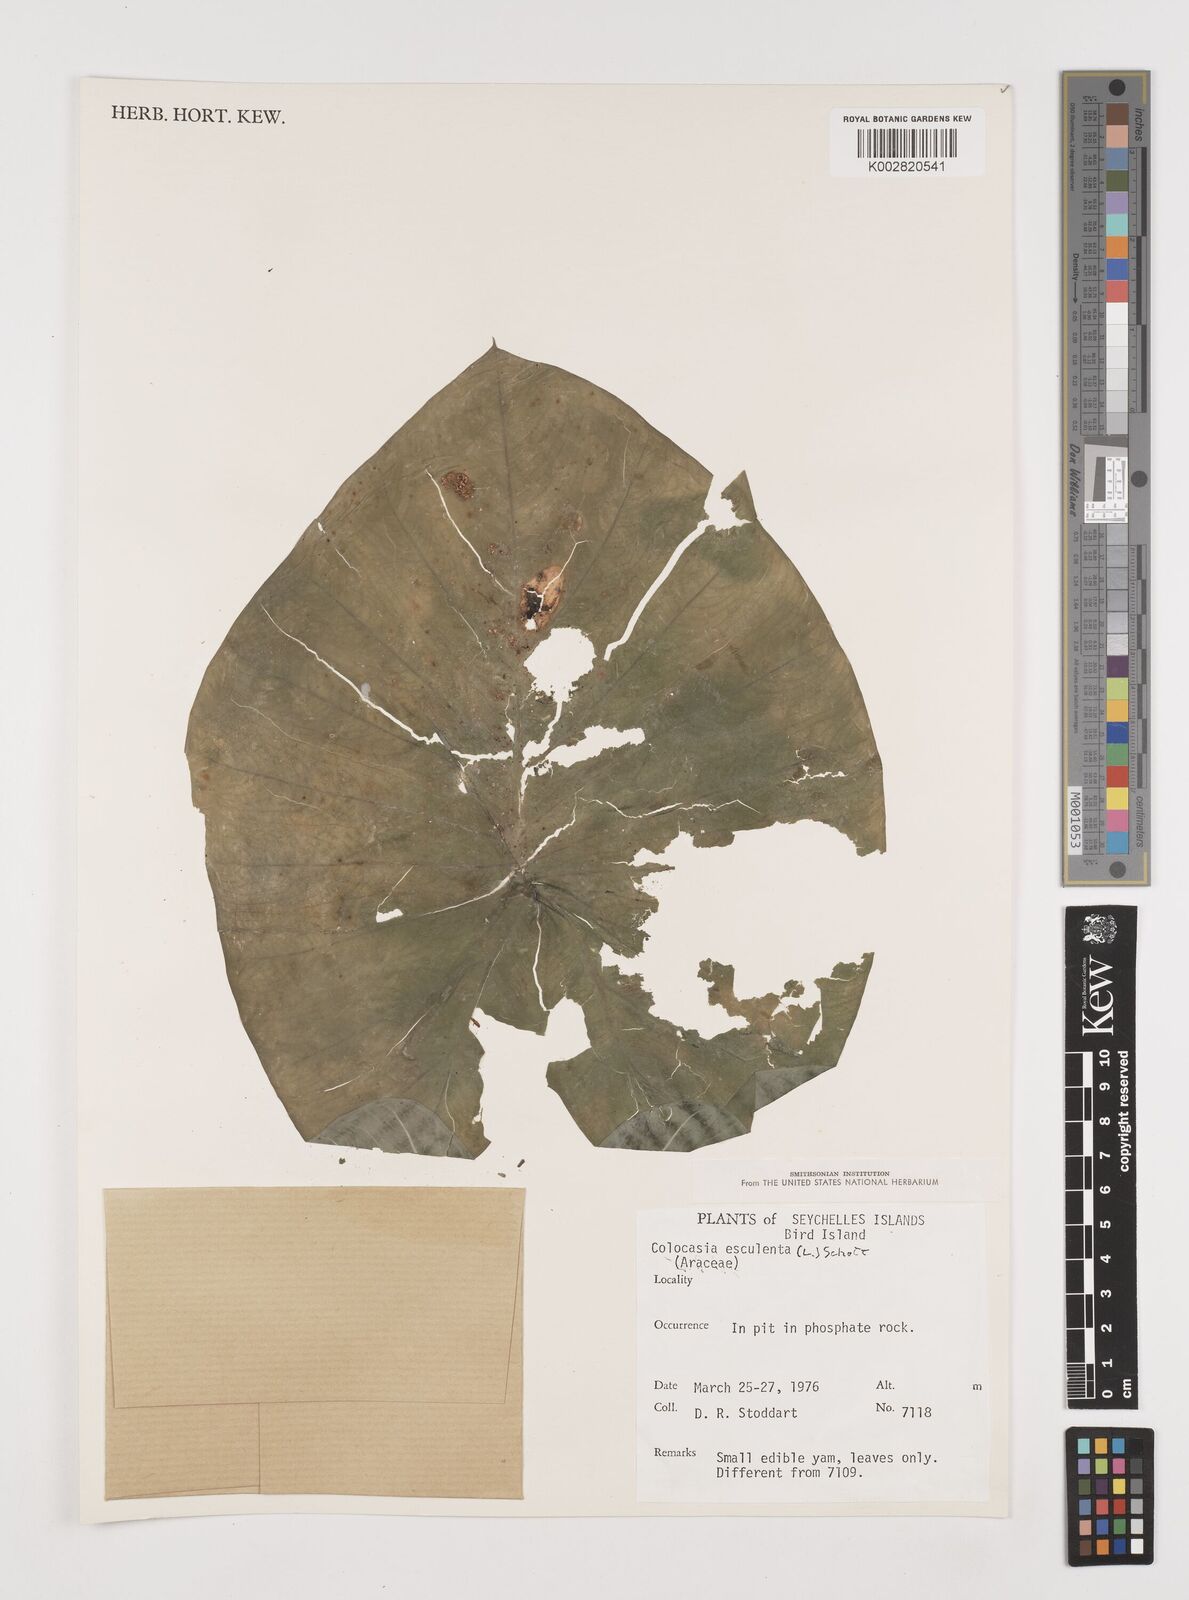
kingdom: Plantae
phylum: Tracheophyta
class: Liliopsida
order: Alismatales
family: Araceae
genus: Colocasia
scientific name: Colocasia esculenta
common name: Taro
